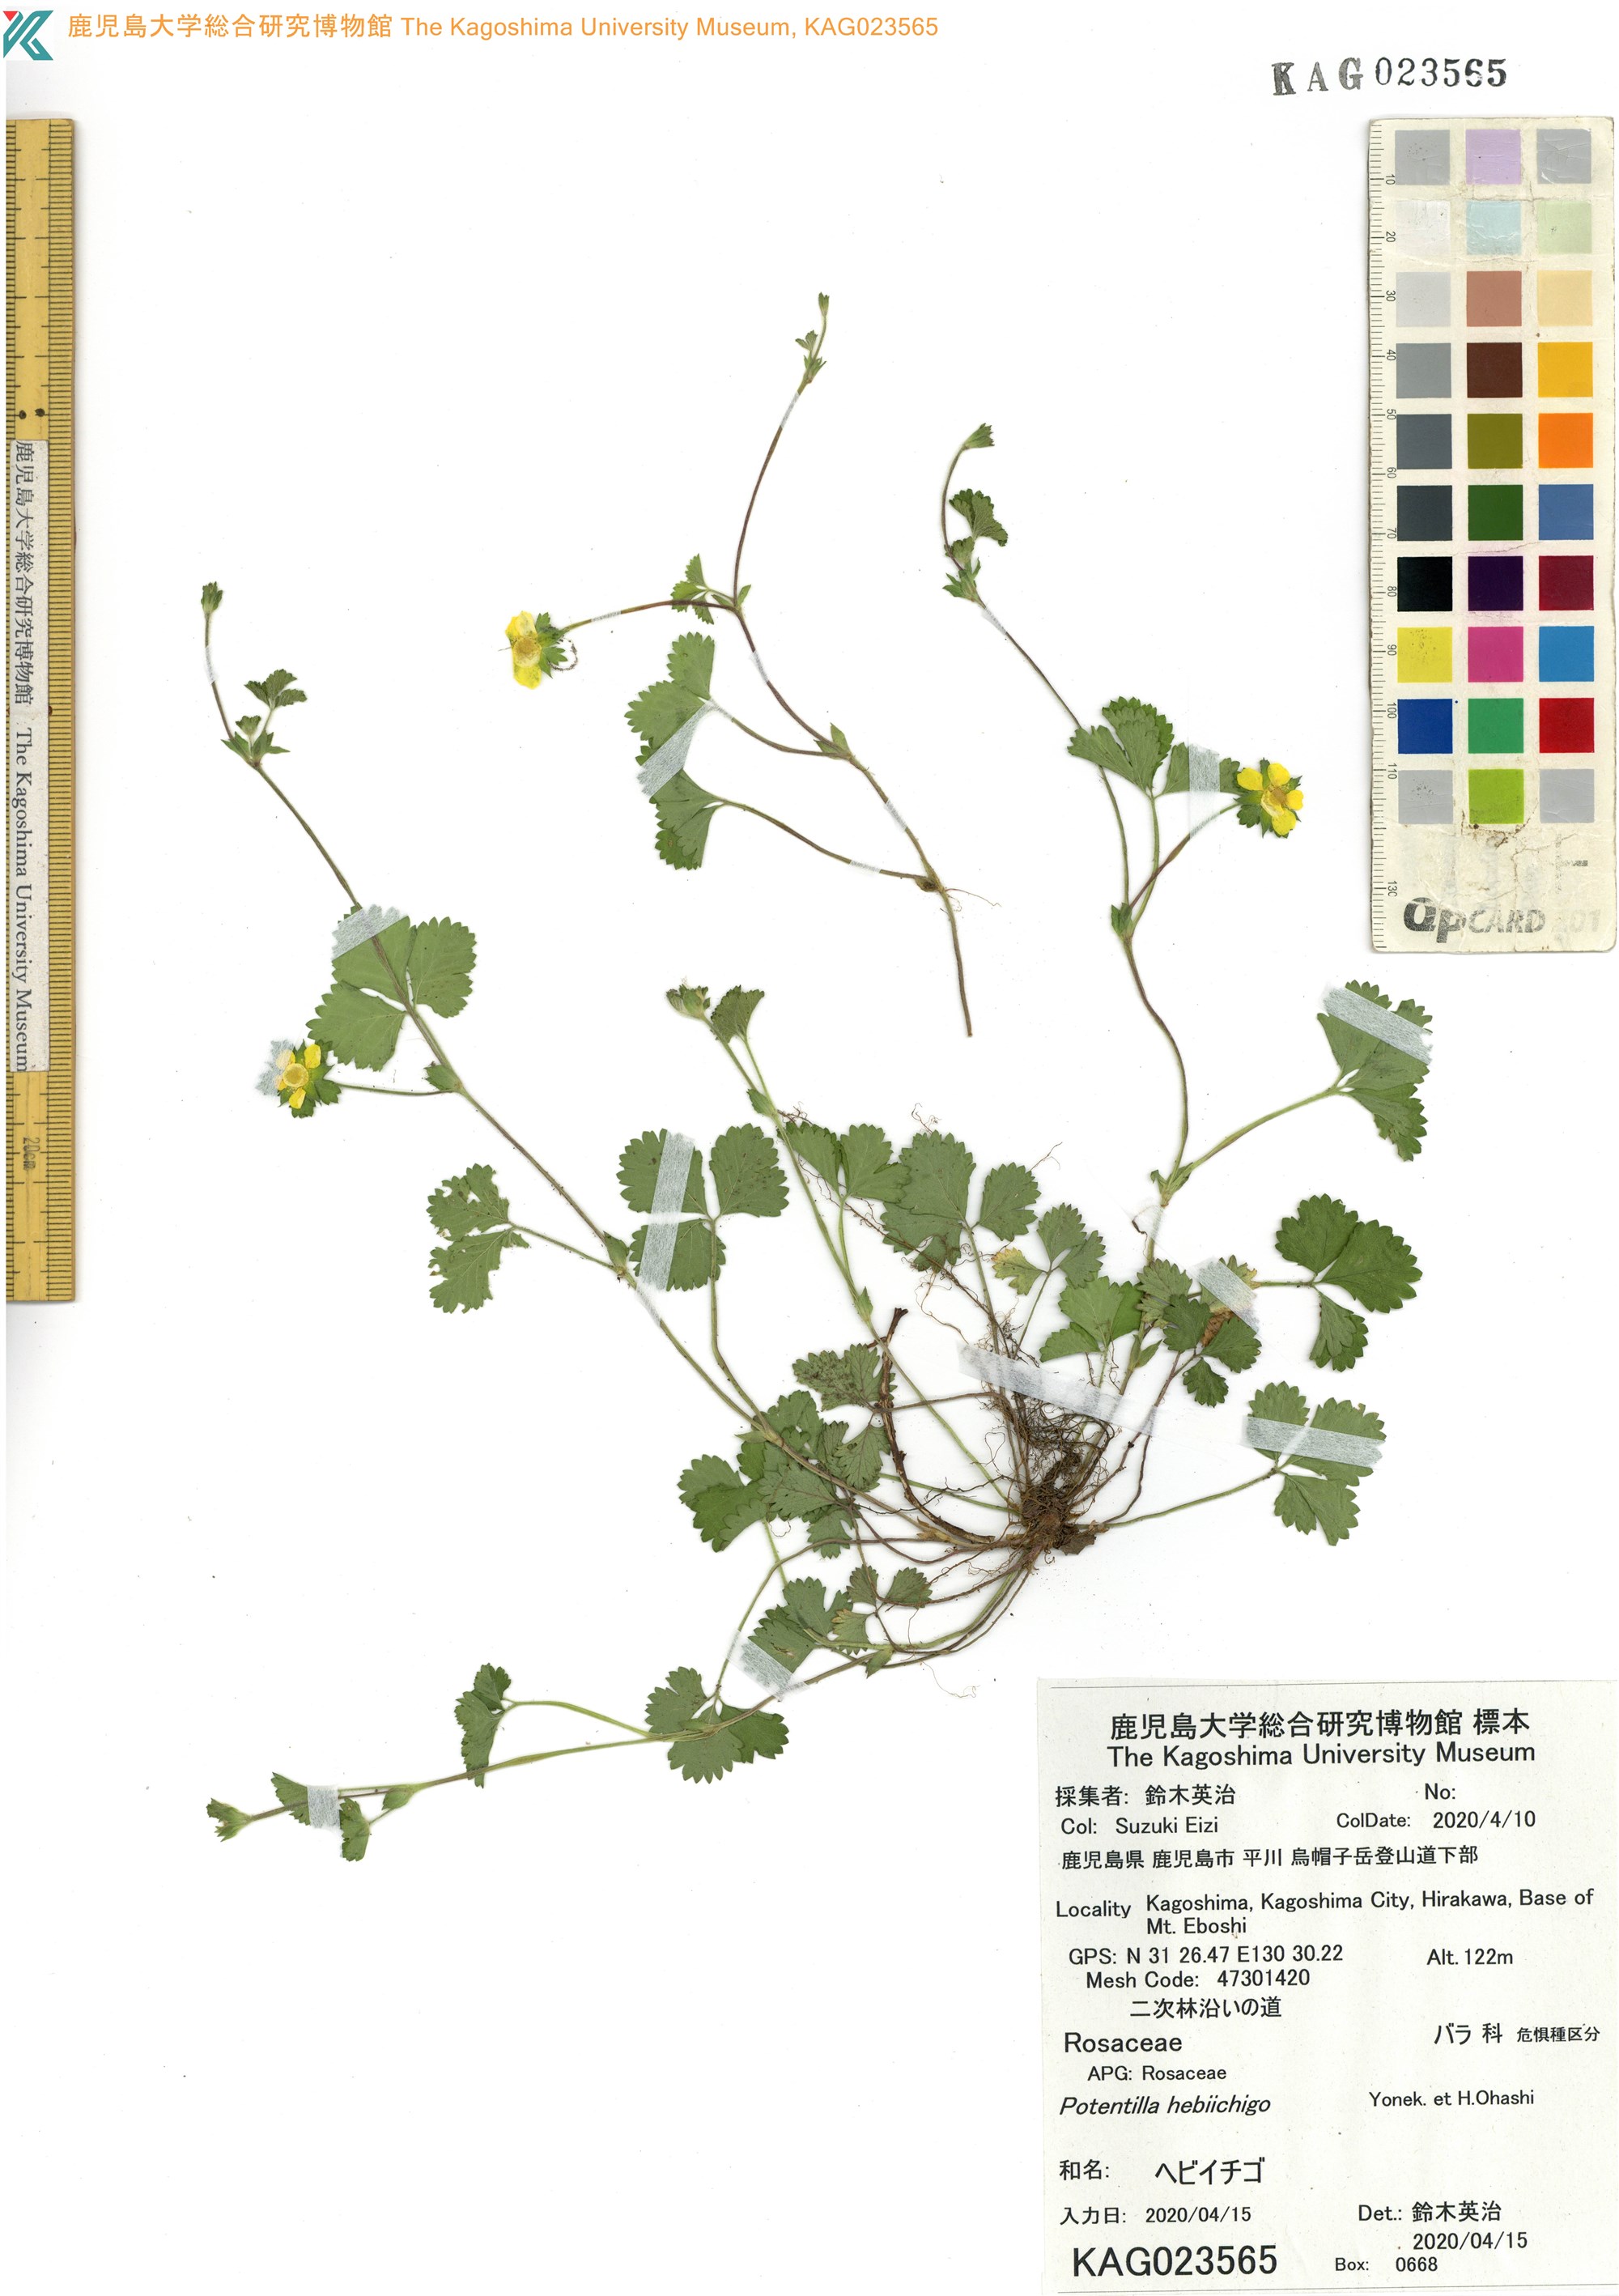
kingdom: Plantae
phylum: Tracheophyta
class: Magnoliopsida
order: Rosales
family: Rosaceae
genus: Potentilla
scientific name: Potentilla wallichiana
